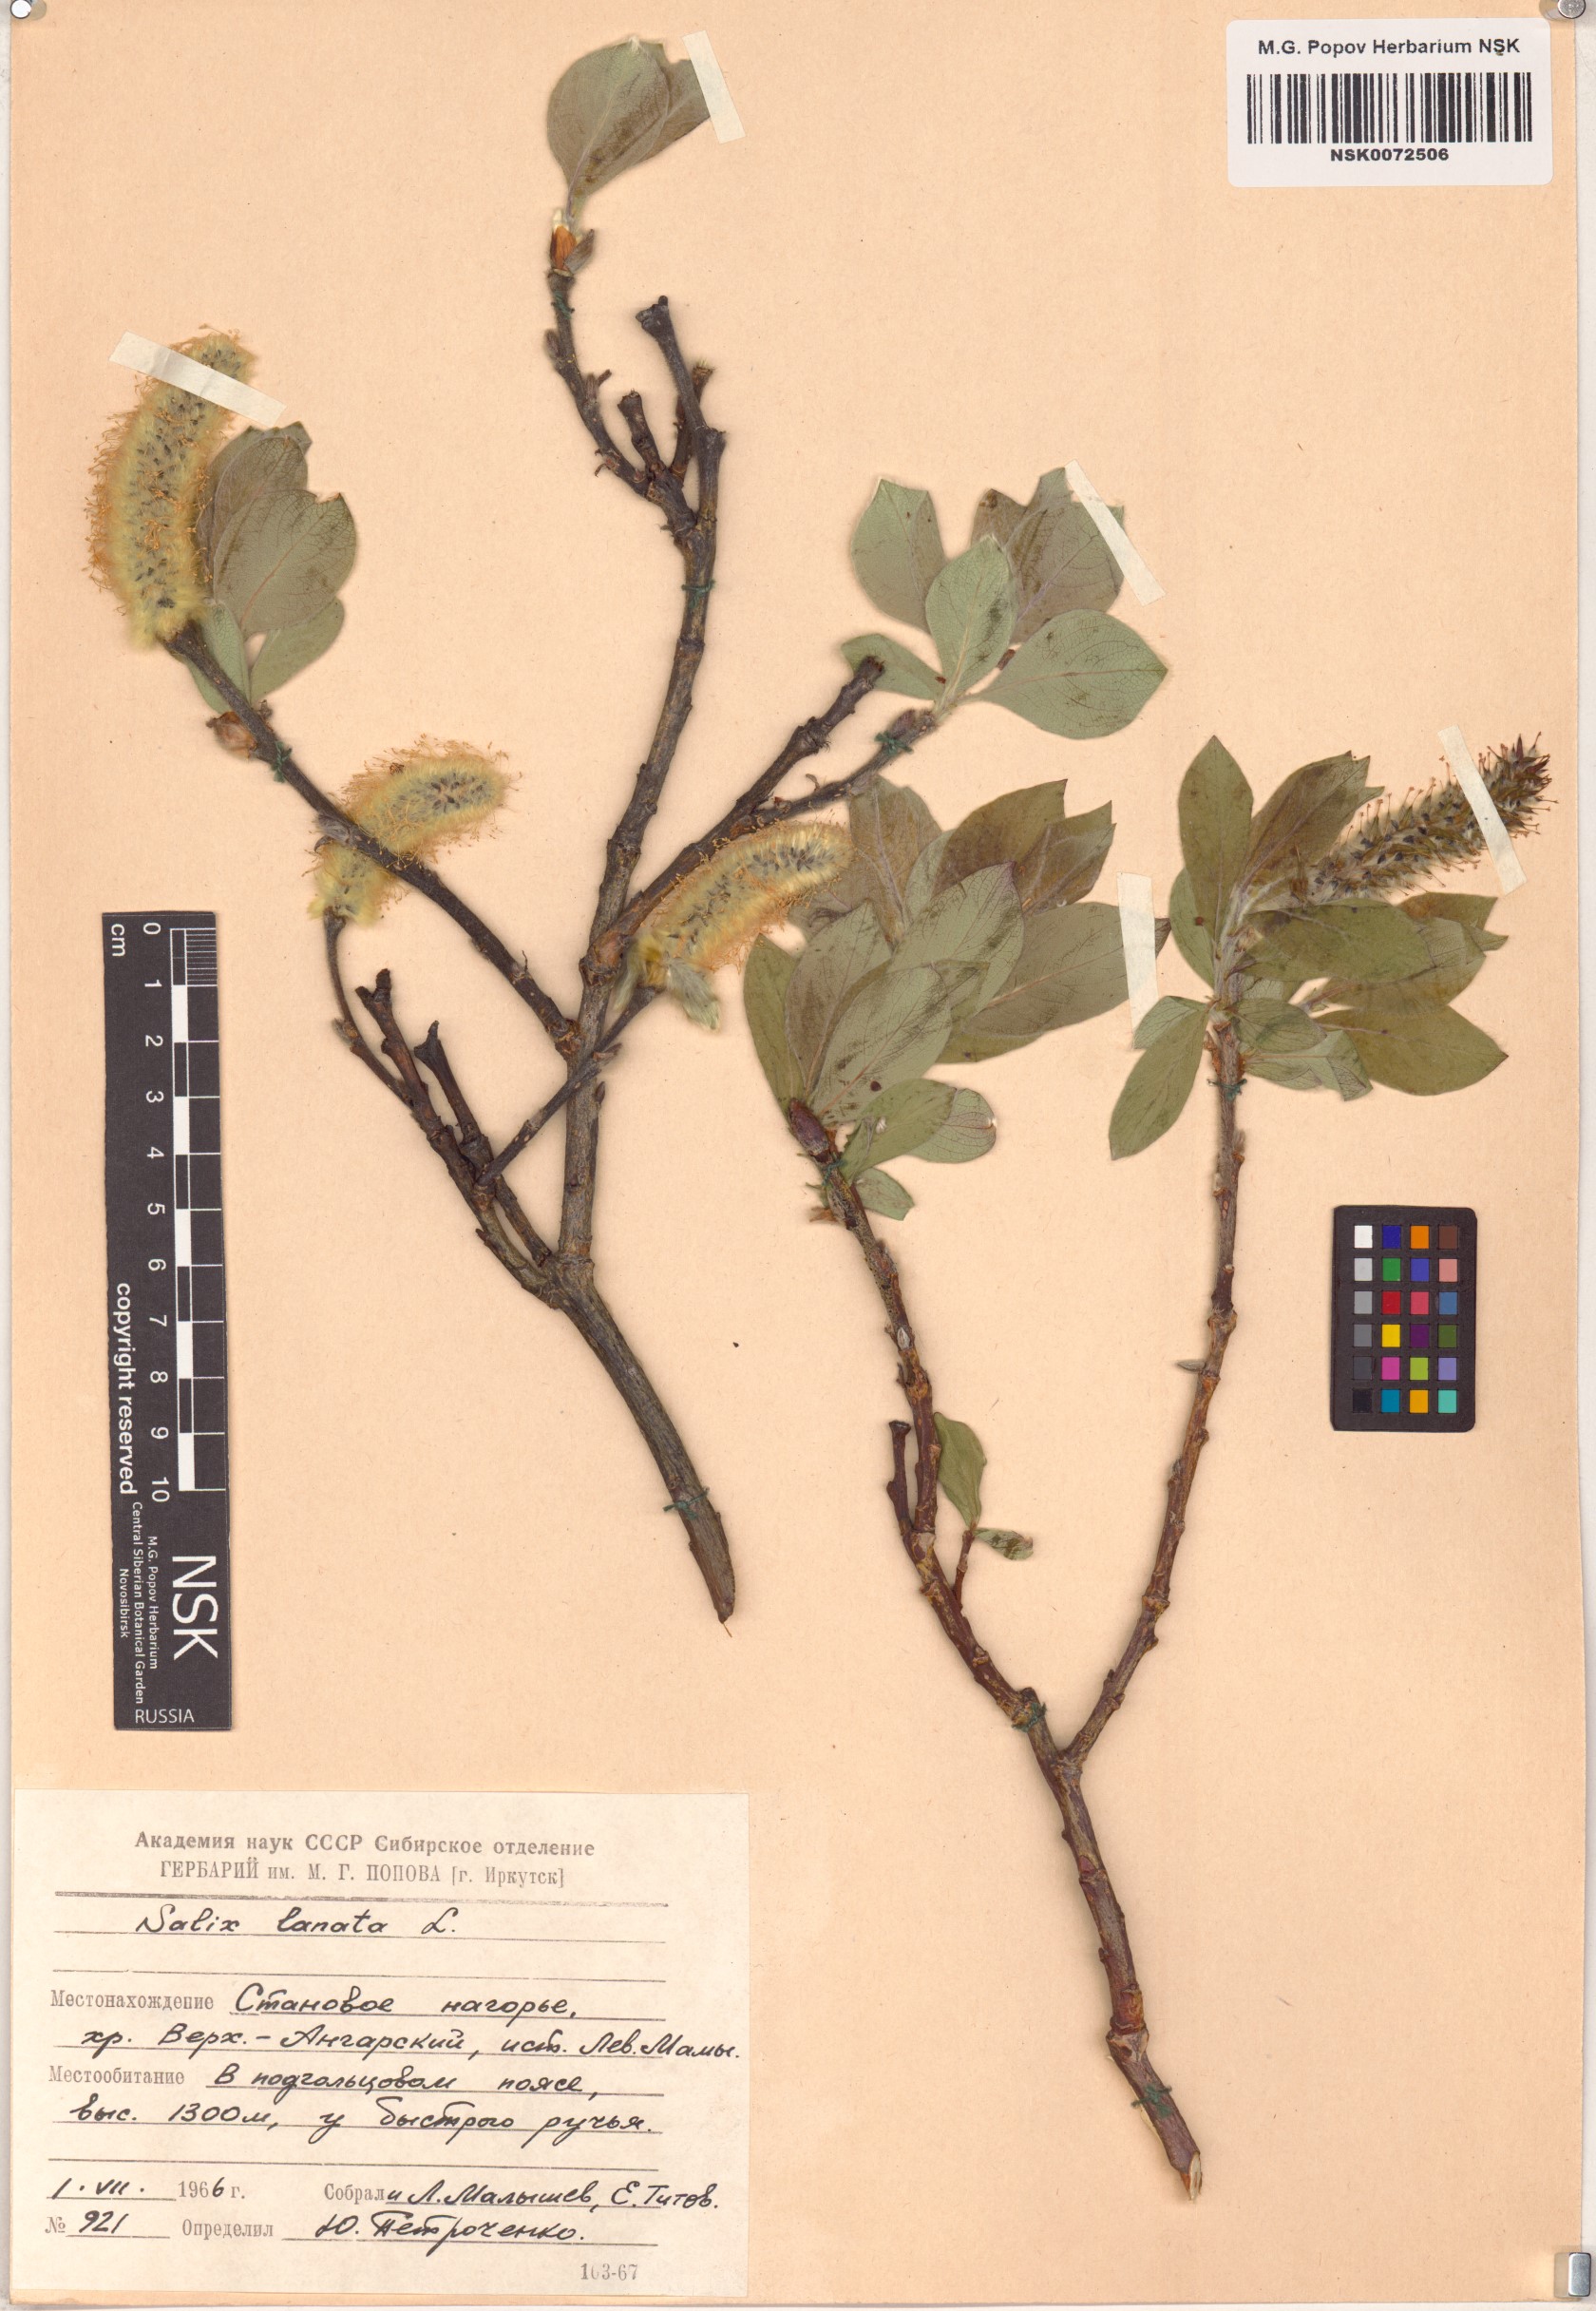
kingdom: Plantae
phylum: Tracheophyta
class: Magnoliopsida
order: Malpighiales
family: Salicaceae
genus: Salix
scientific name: Salix lanata
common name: Woolly willow
